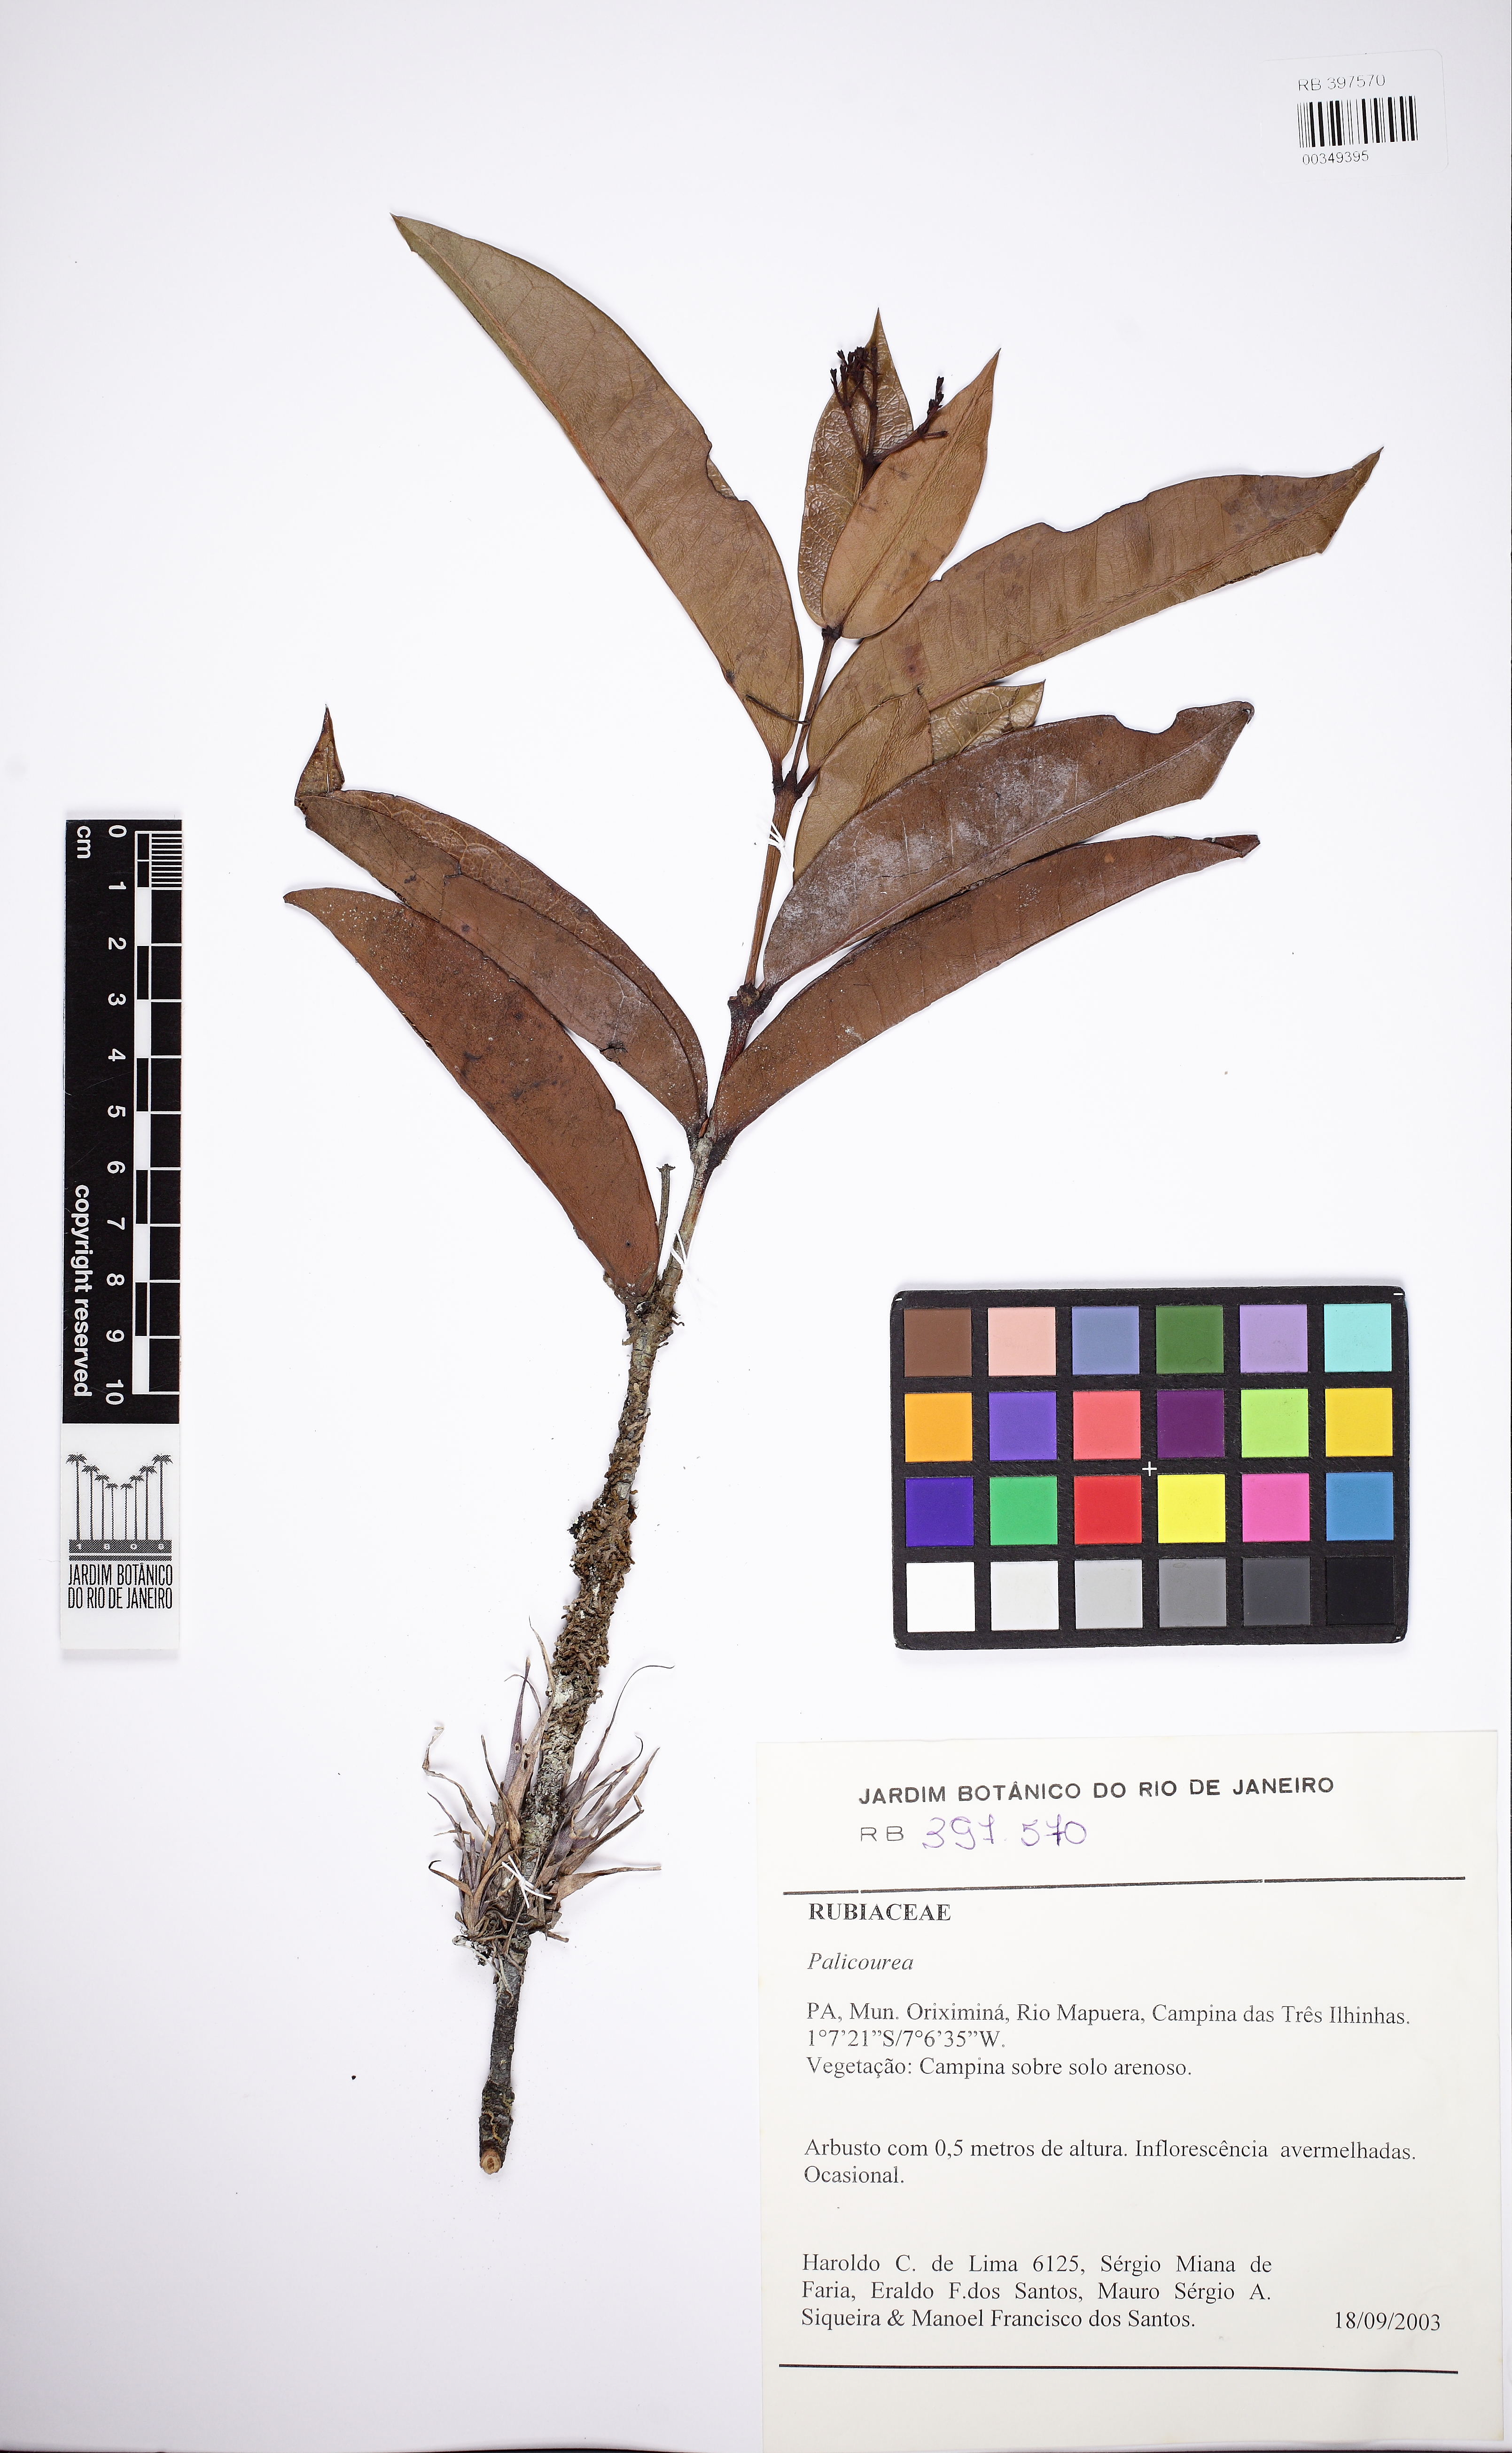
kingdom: Plantae
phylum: Tracheophyta
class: Magnoliopsida
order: Gentianales
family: Rubiaceae
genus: Palicourea
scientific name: Palicourea
